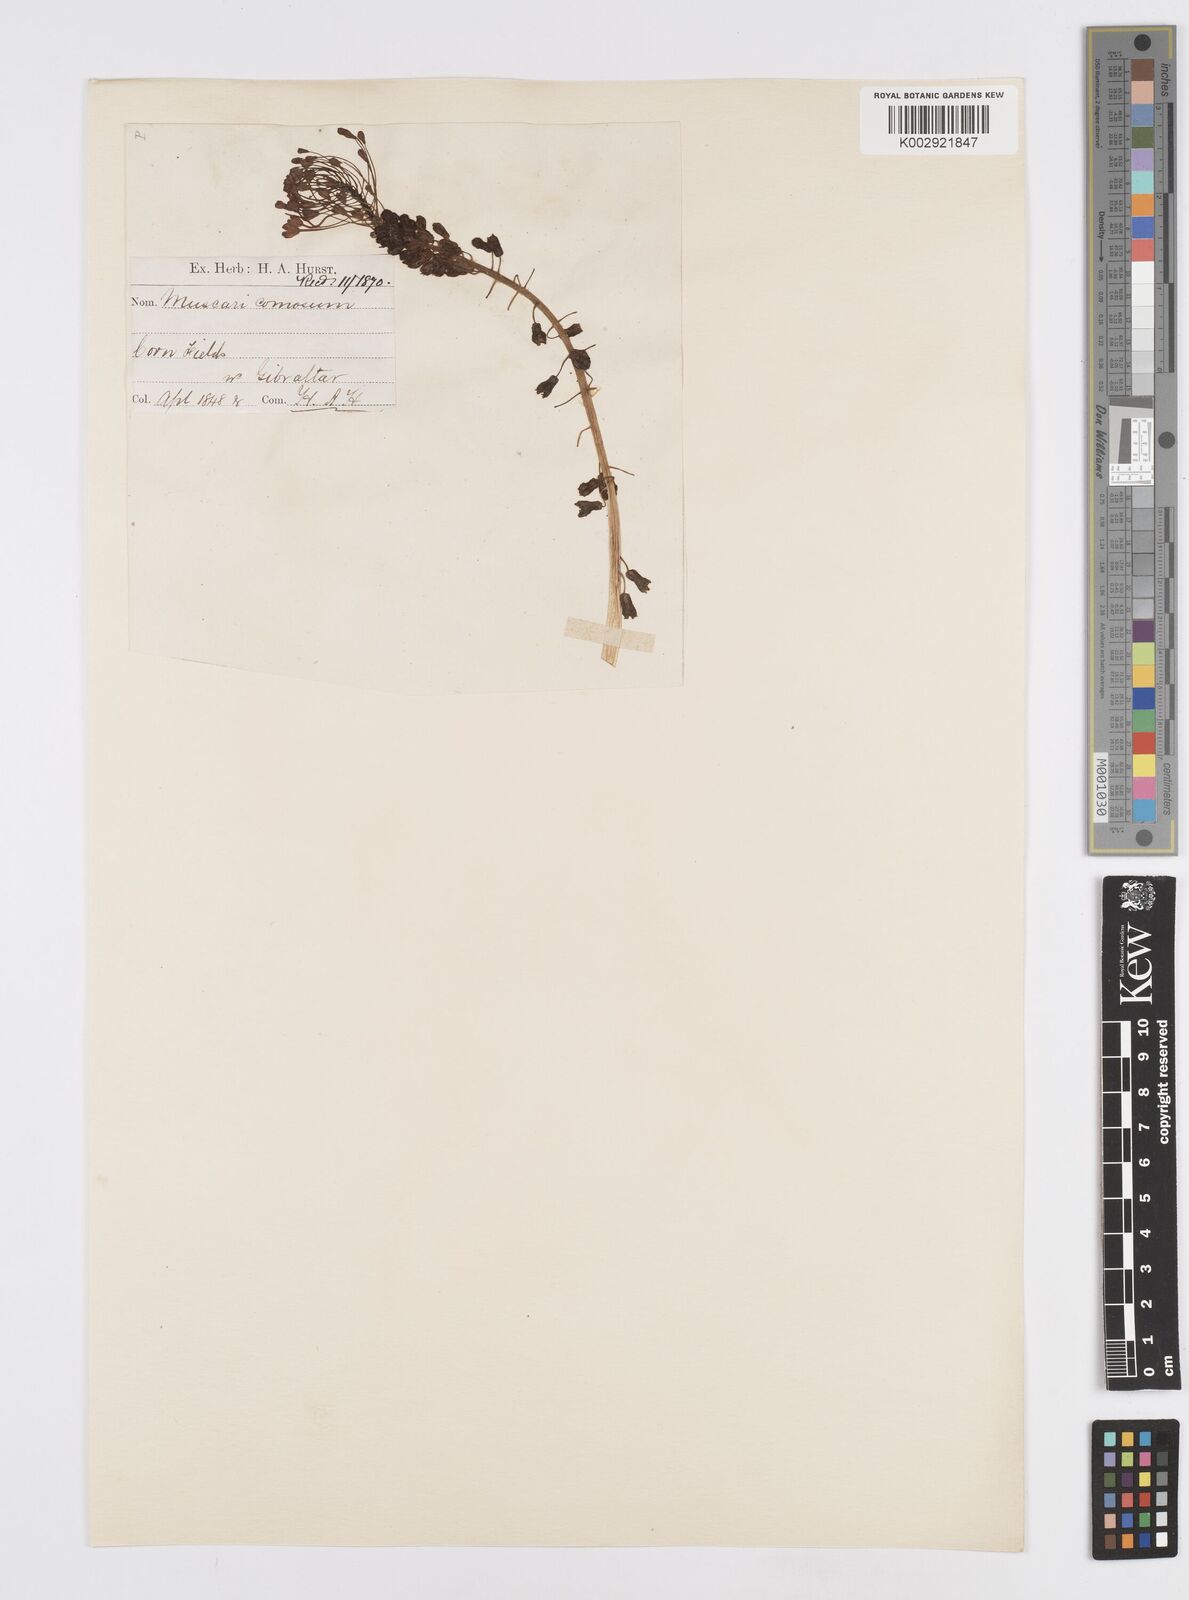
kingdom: Plantae
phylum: Tracheophyta
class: Liliopsida
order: Asparagales
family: Asparagaceae
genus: Muscari
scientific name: Muscari comosum
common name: Tassel hyacinth
